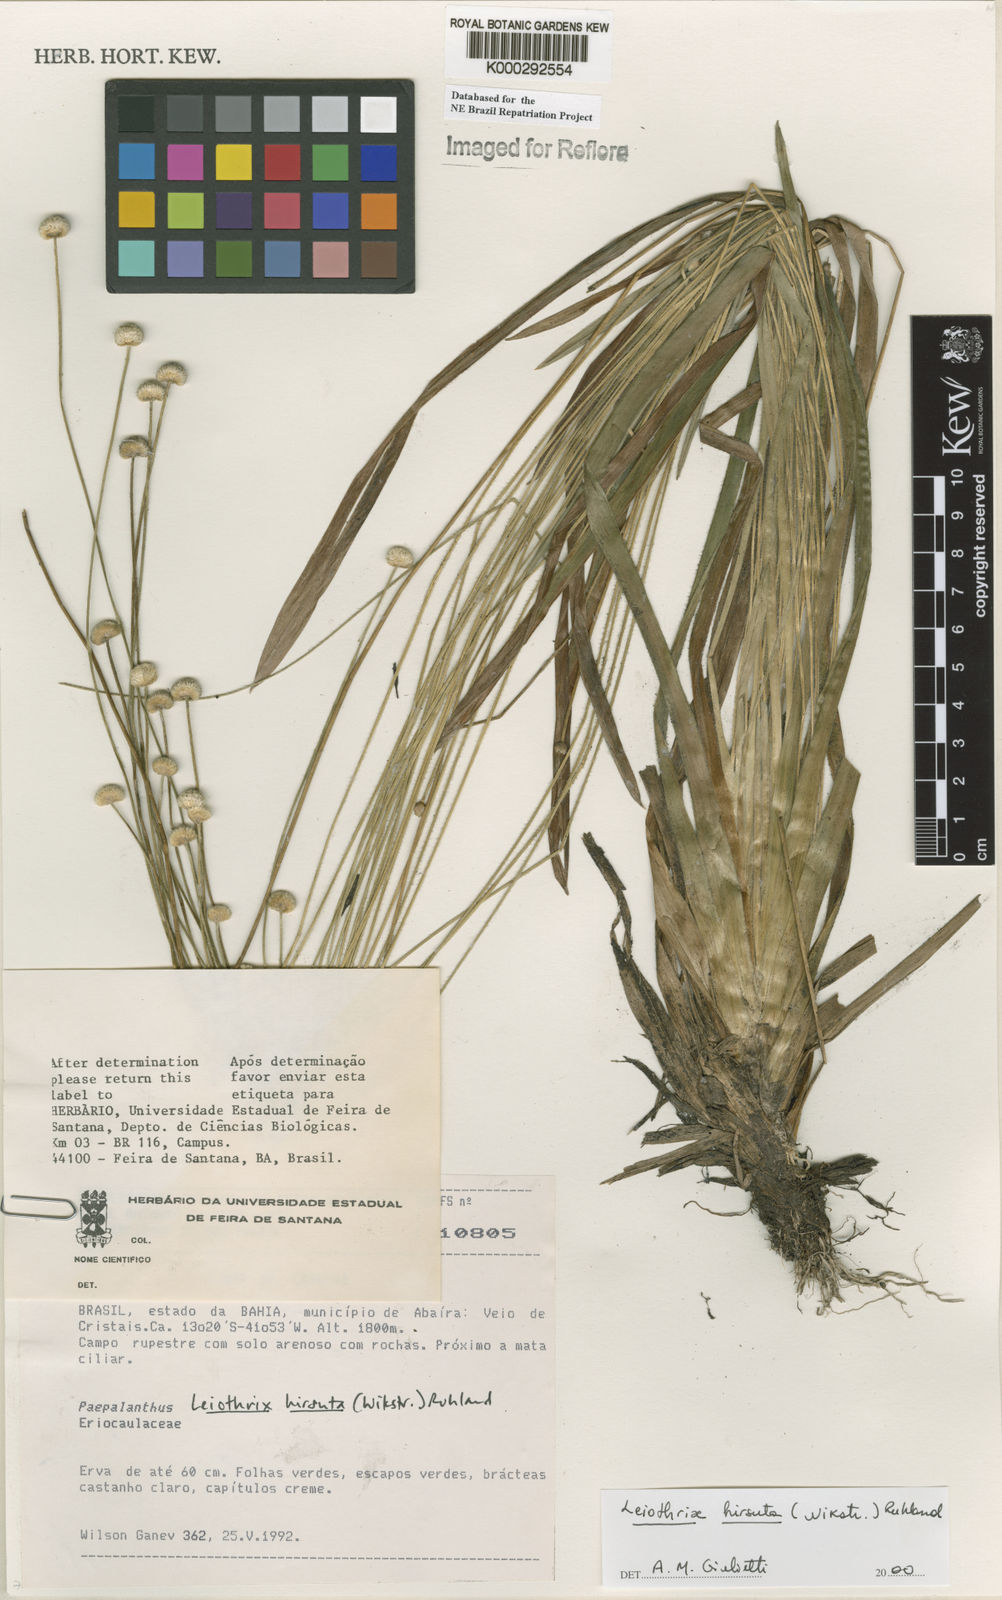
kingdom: Plantae
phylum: Tracheophyta
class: Liliopsida
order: Poales
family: Eriocaulaceae
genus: Leiothrix
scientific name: Leiothrix hirsuta
